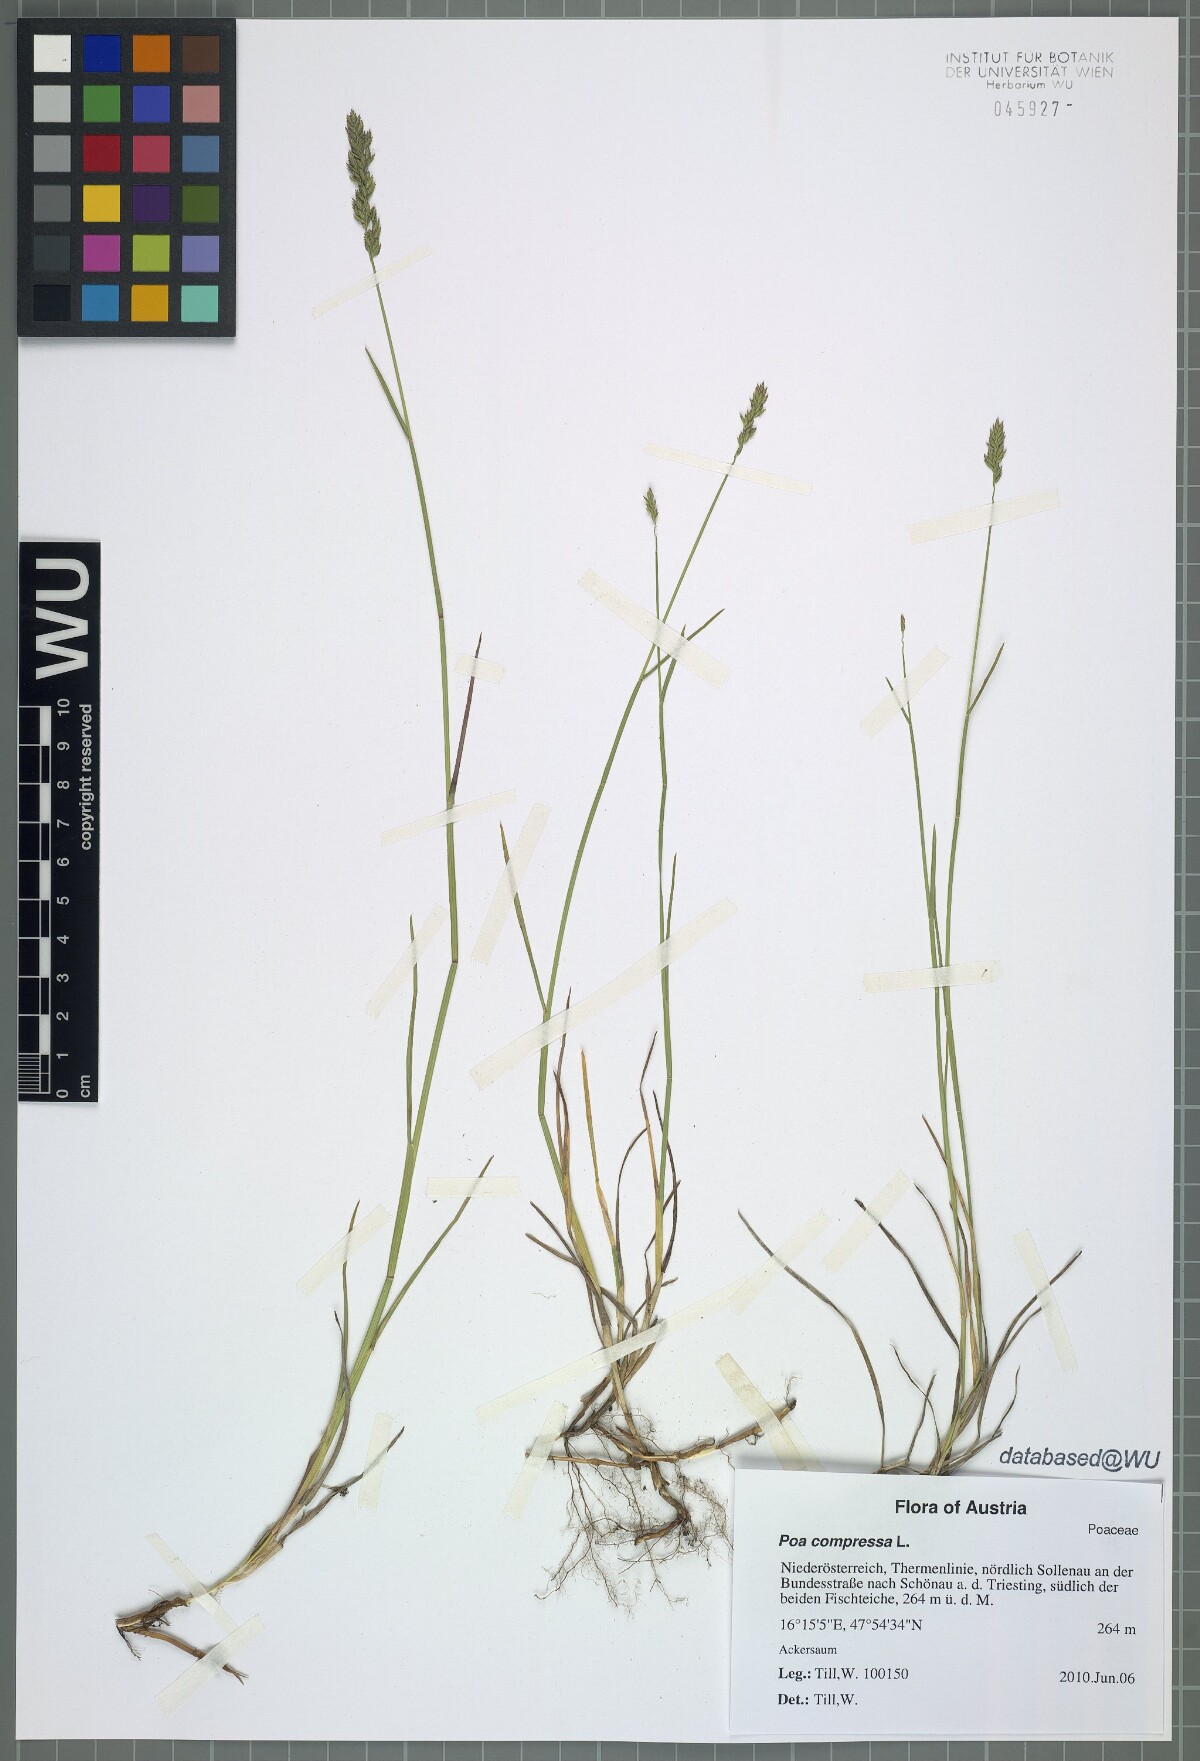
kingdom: Plantae
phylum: Tracheophyta
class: Liliopsida
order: Poales
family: Poaceae
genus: Poa
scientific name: Poa compressa
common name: Canada bluegrass
